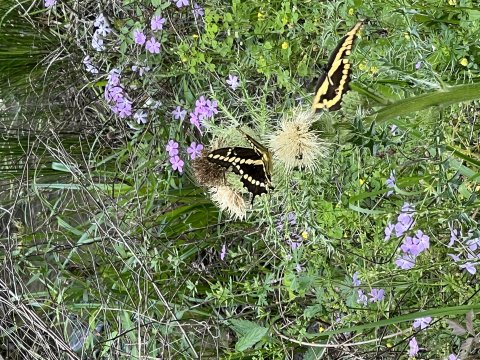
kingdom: Animalia
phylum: Arthropoda
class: Insecta
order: Lepidoptera
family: Papilionidae
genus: Papilio
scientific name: Papilio cresphontes
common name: Eastern Giant Swallowtail
